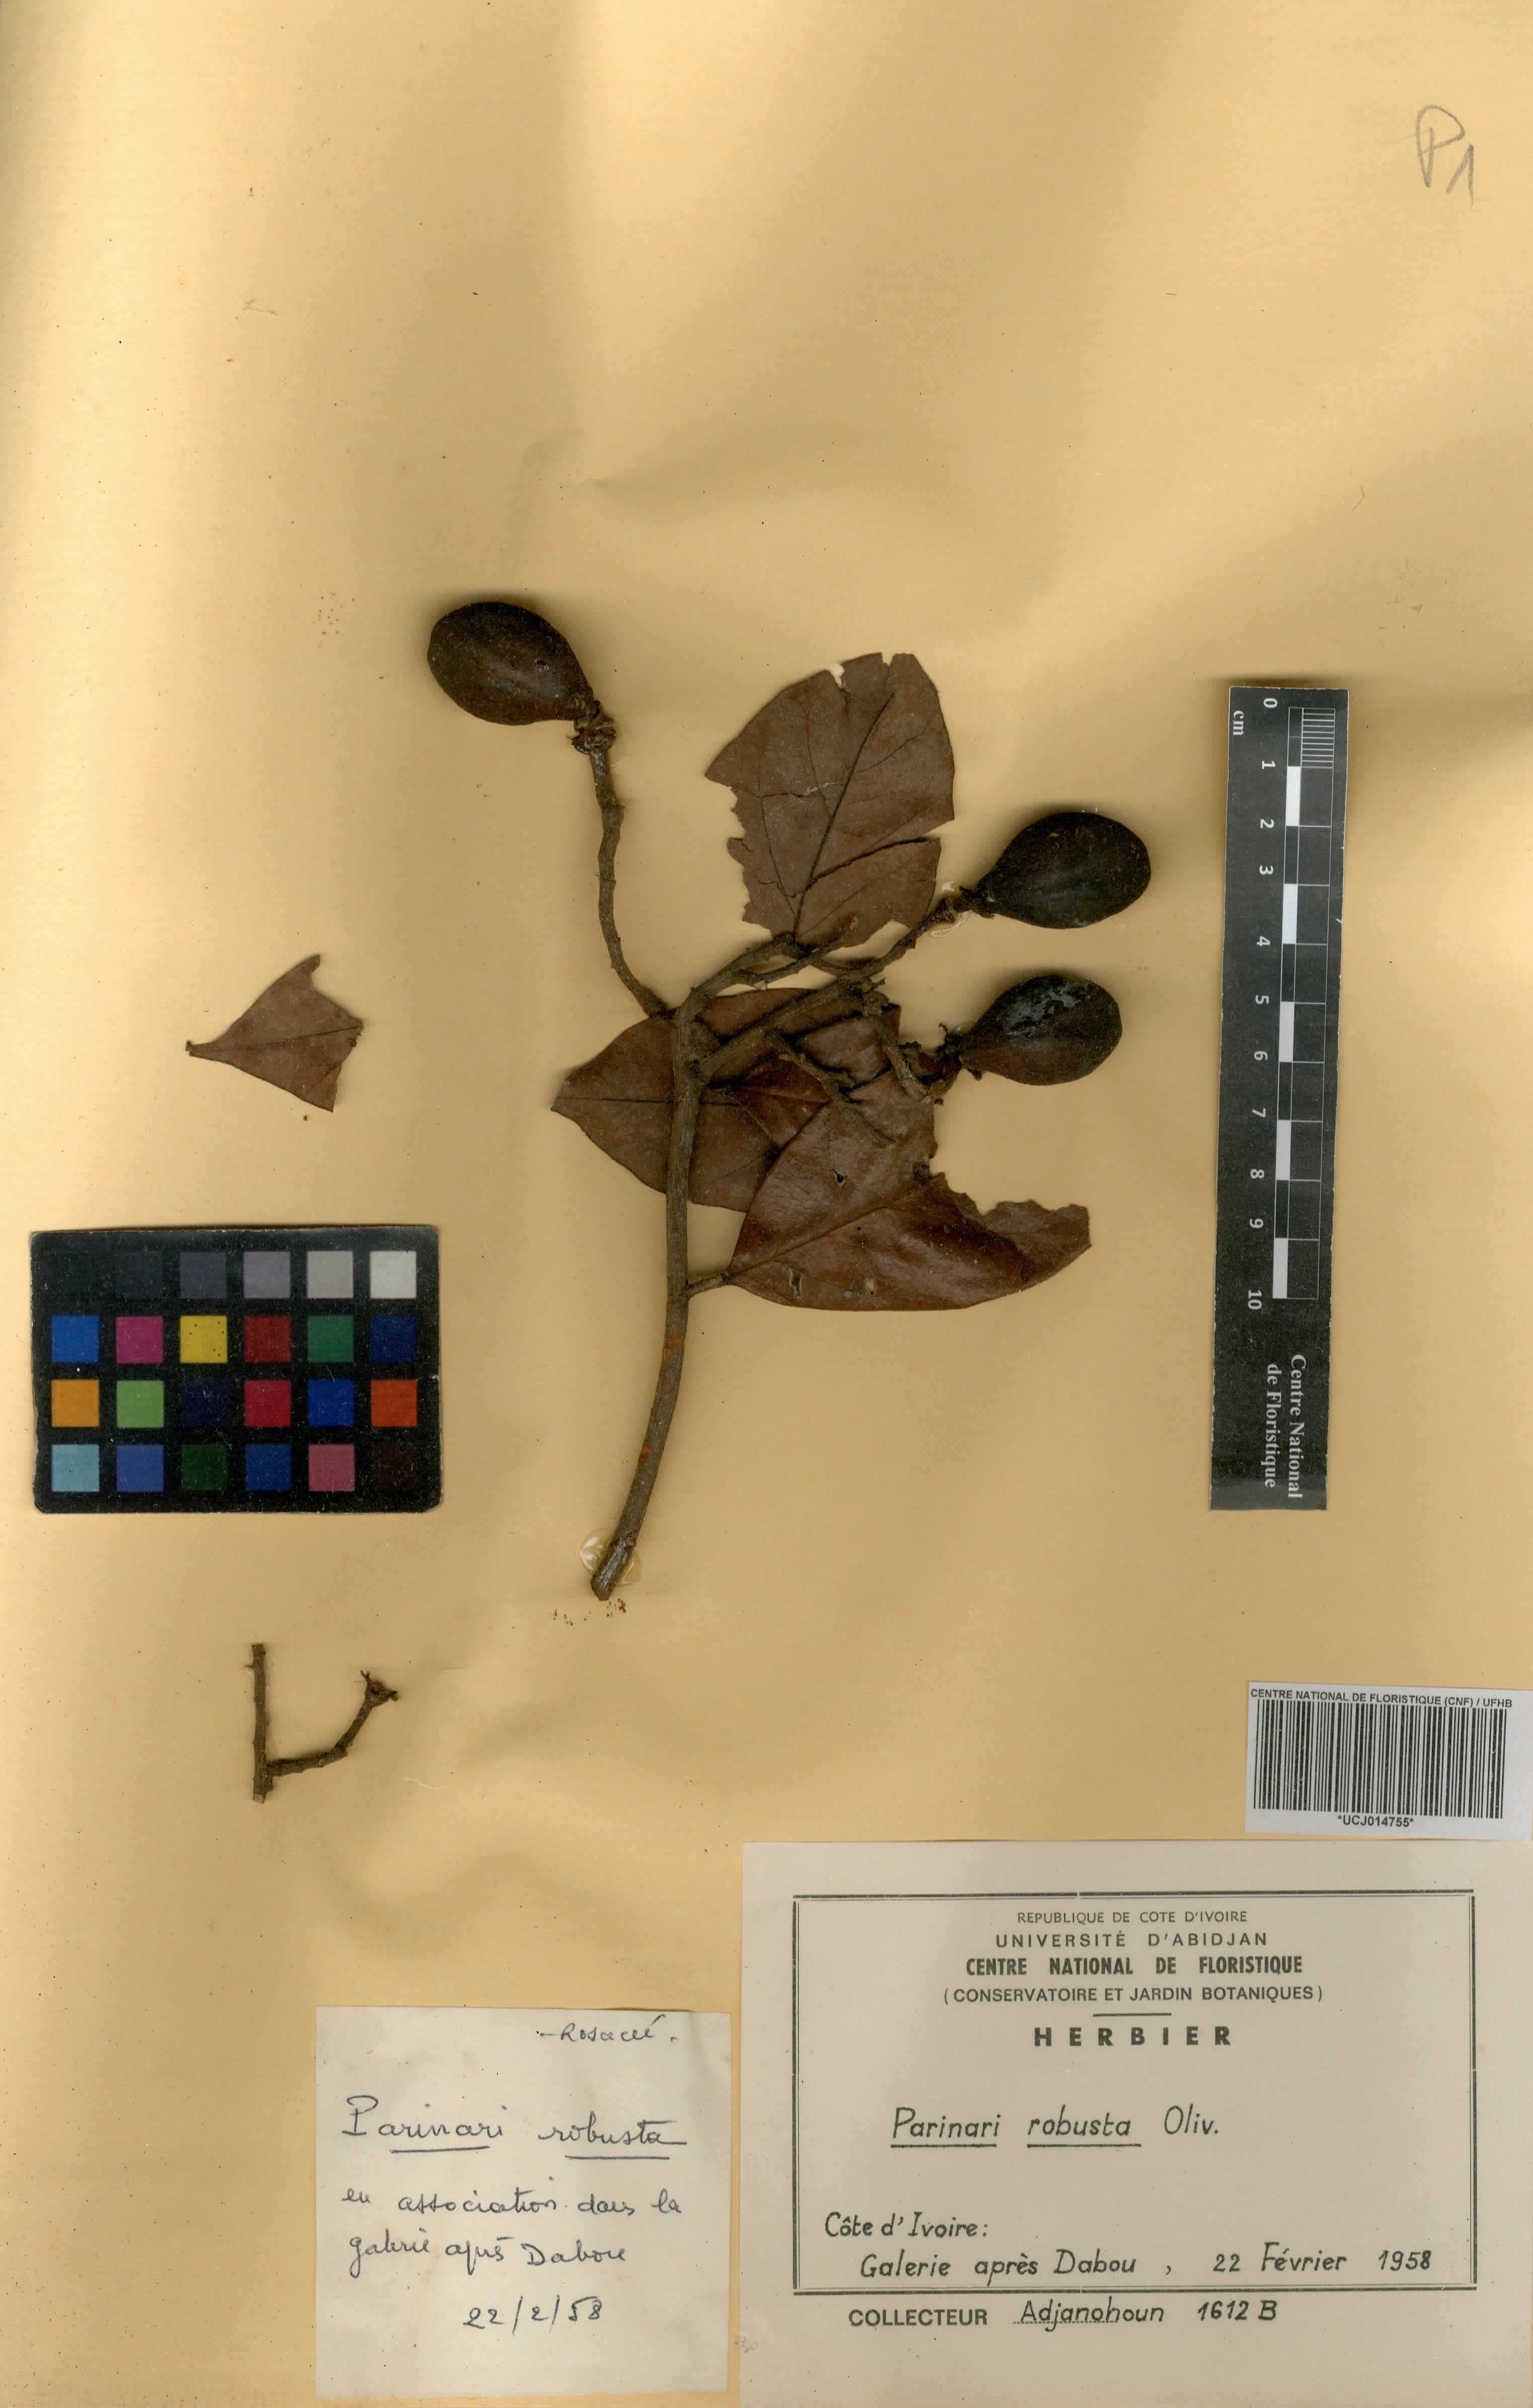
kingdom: Plantae
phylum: Tracheophyta
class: Magnoliopsida
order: Malpighiales
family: Chrysobalanaceae
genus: Maranthes
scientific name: Maranthes robusta
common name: Benin mahogany
